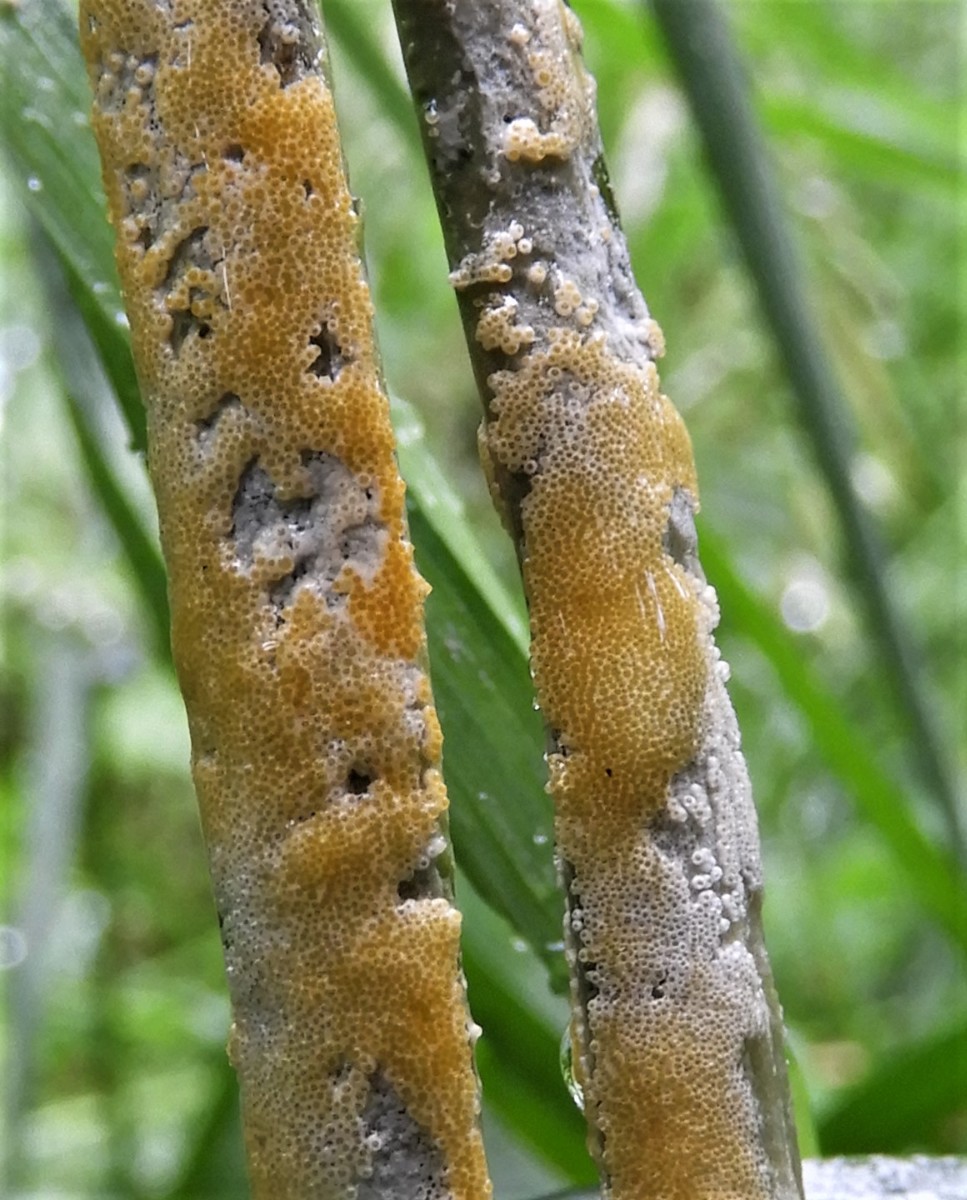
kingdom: Fungi
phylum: Ascomycota
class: Sordariomycetes
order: Hypocreales
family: Clavicipitaceae
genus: Epichloe
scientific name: Epichloe typhina
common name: almindelig kernerør
